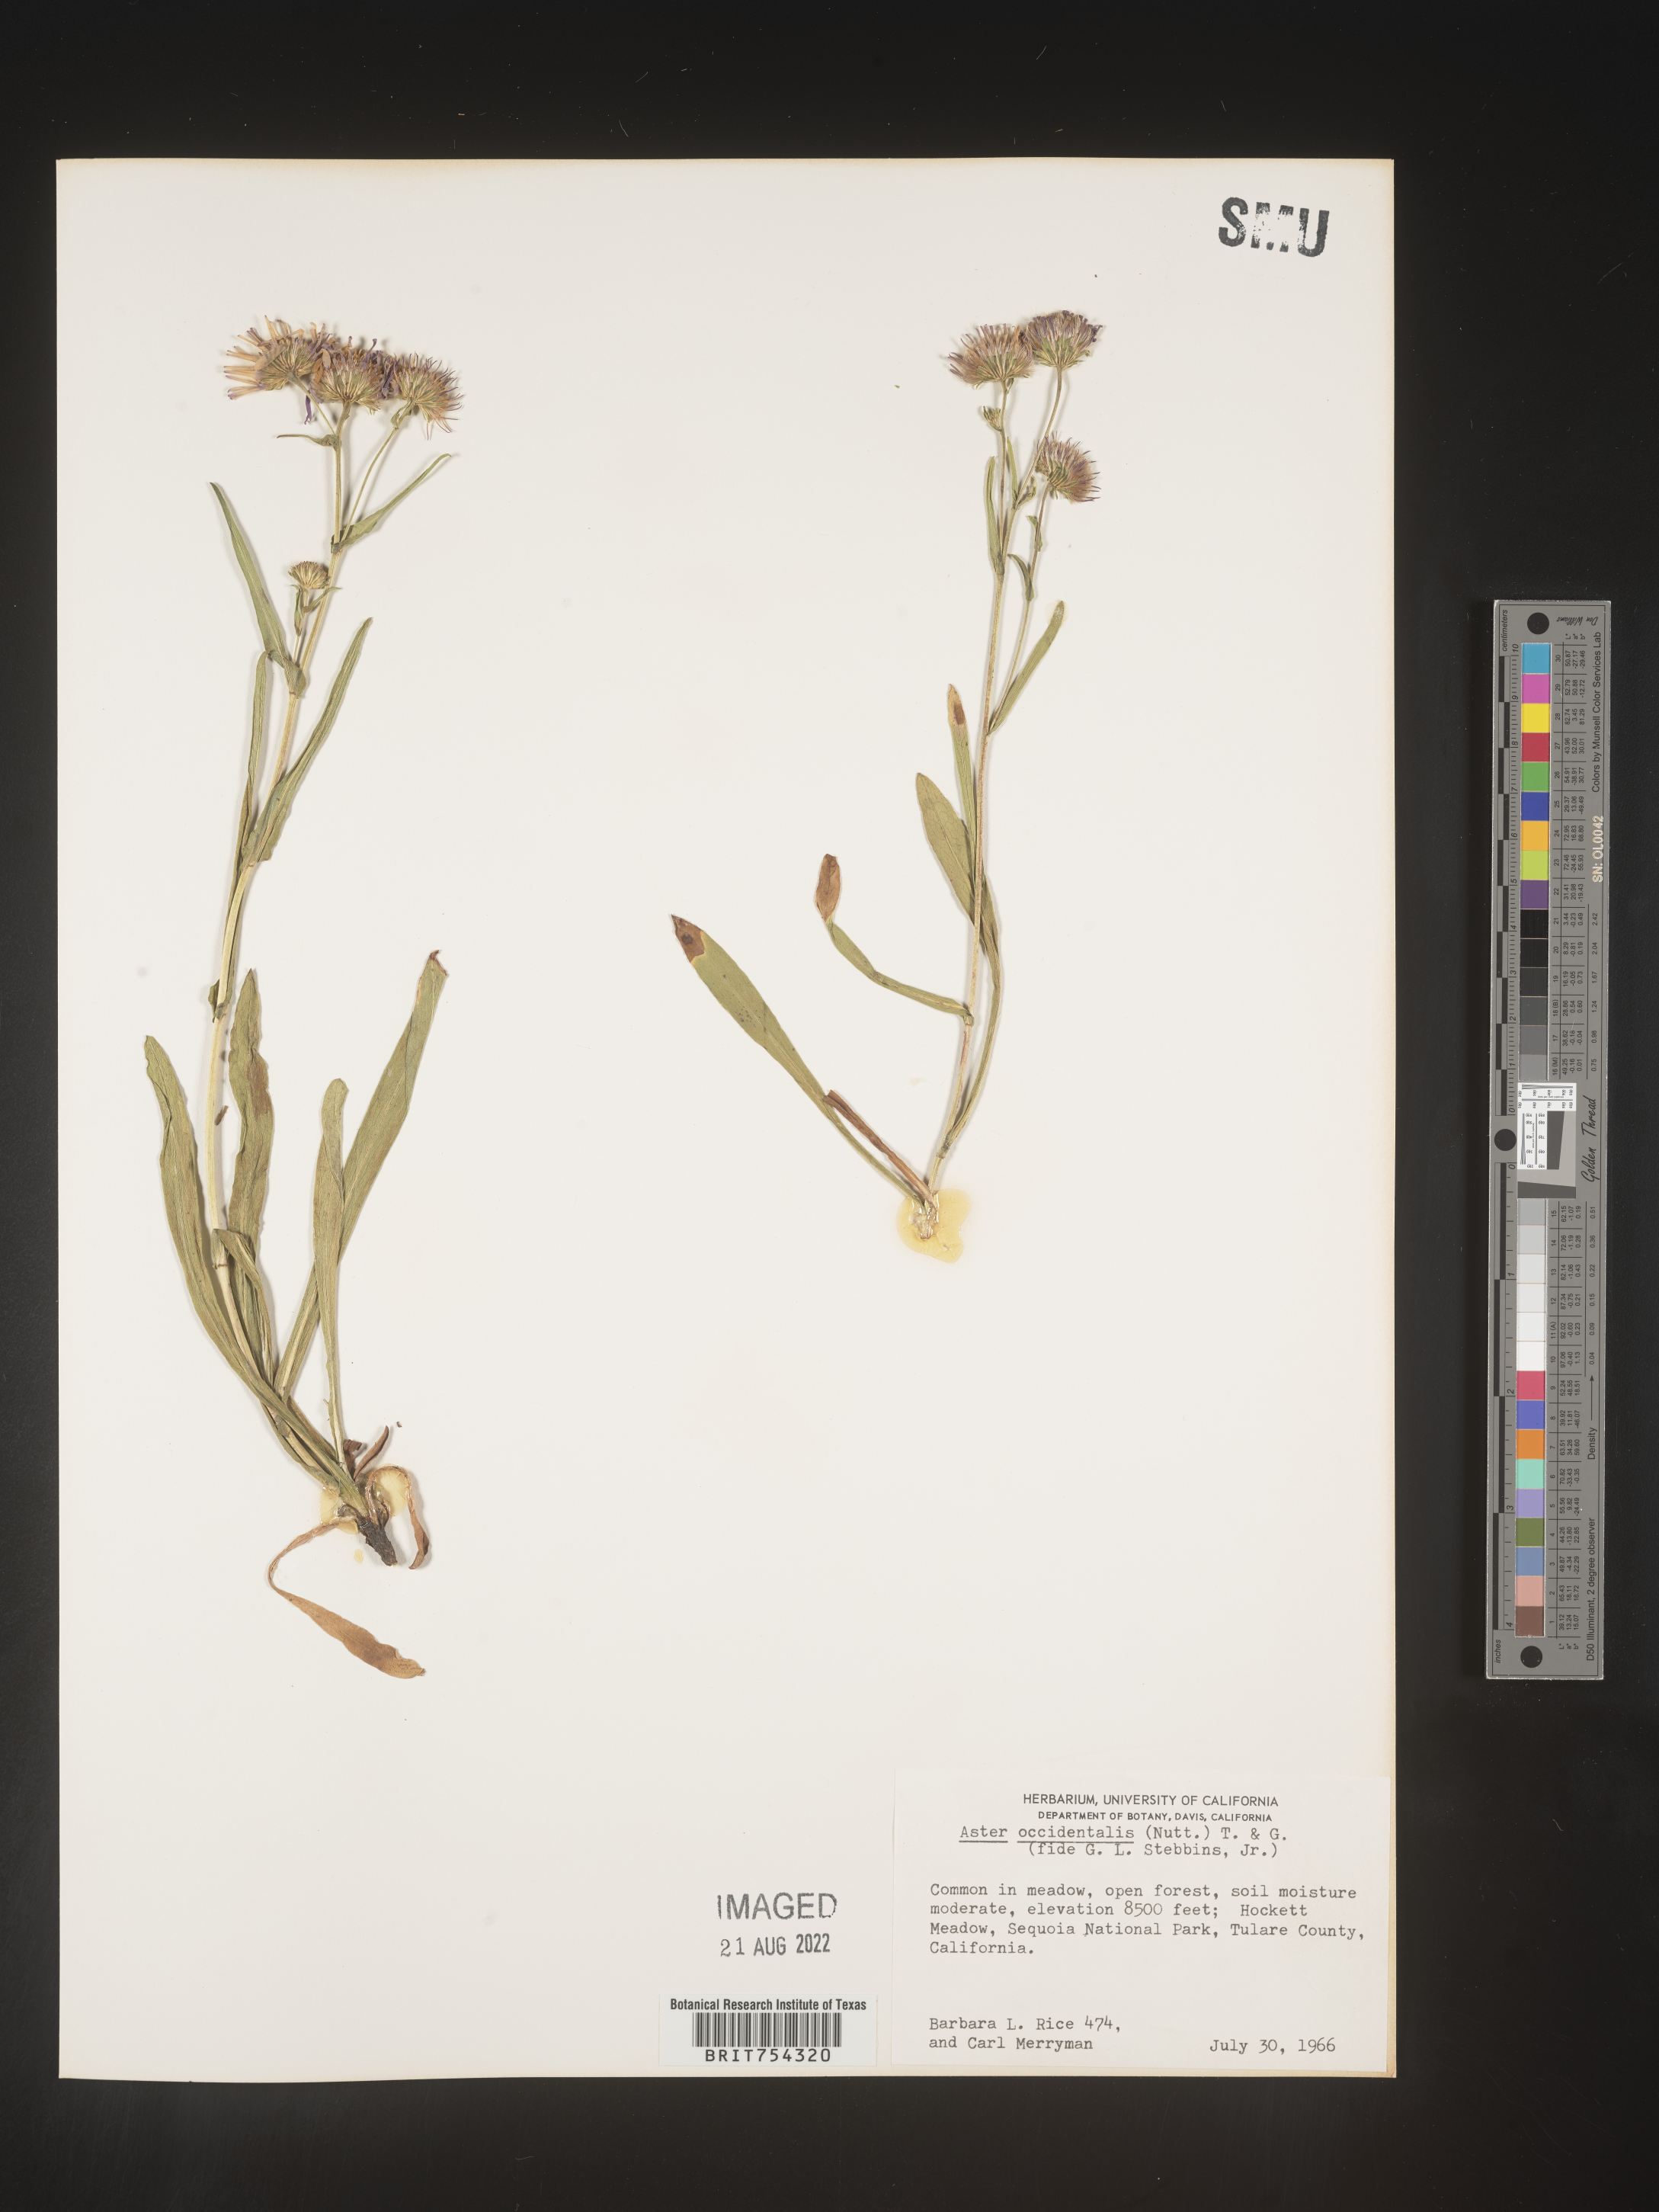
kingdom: Plantae
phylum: Tracheophyta
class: Magnoliopsida
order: Asterales
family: Asteraceae
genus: Symphyotrichum
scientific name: Symphyotrichum spathulatum
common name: Western mountain aster
